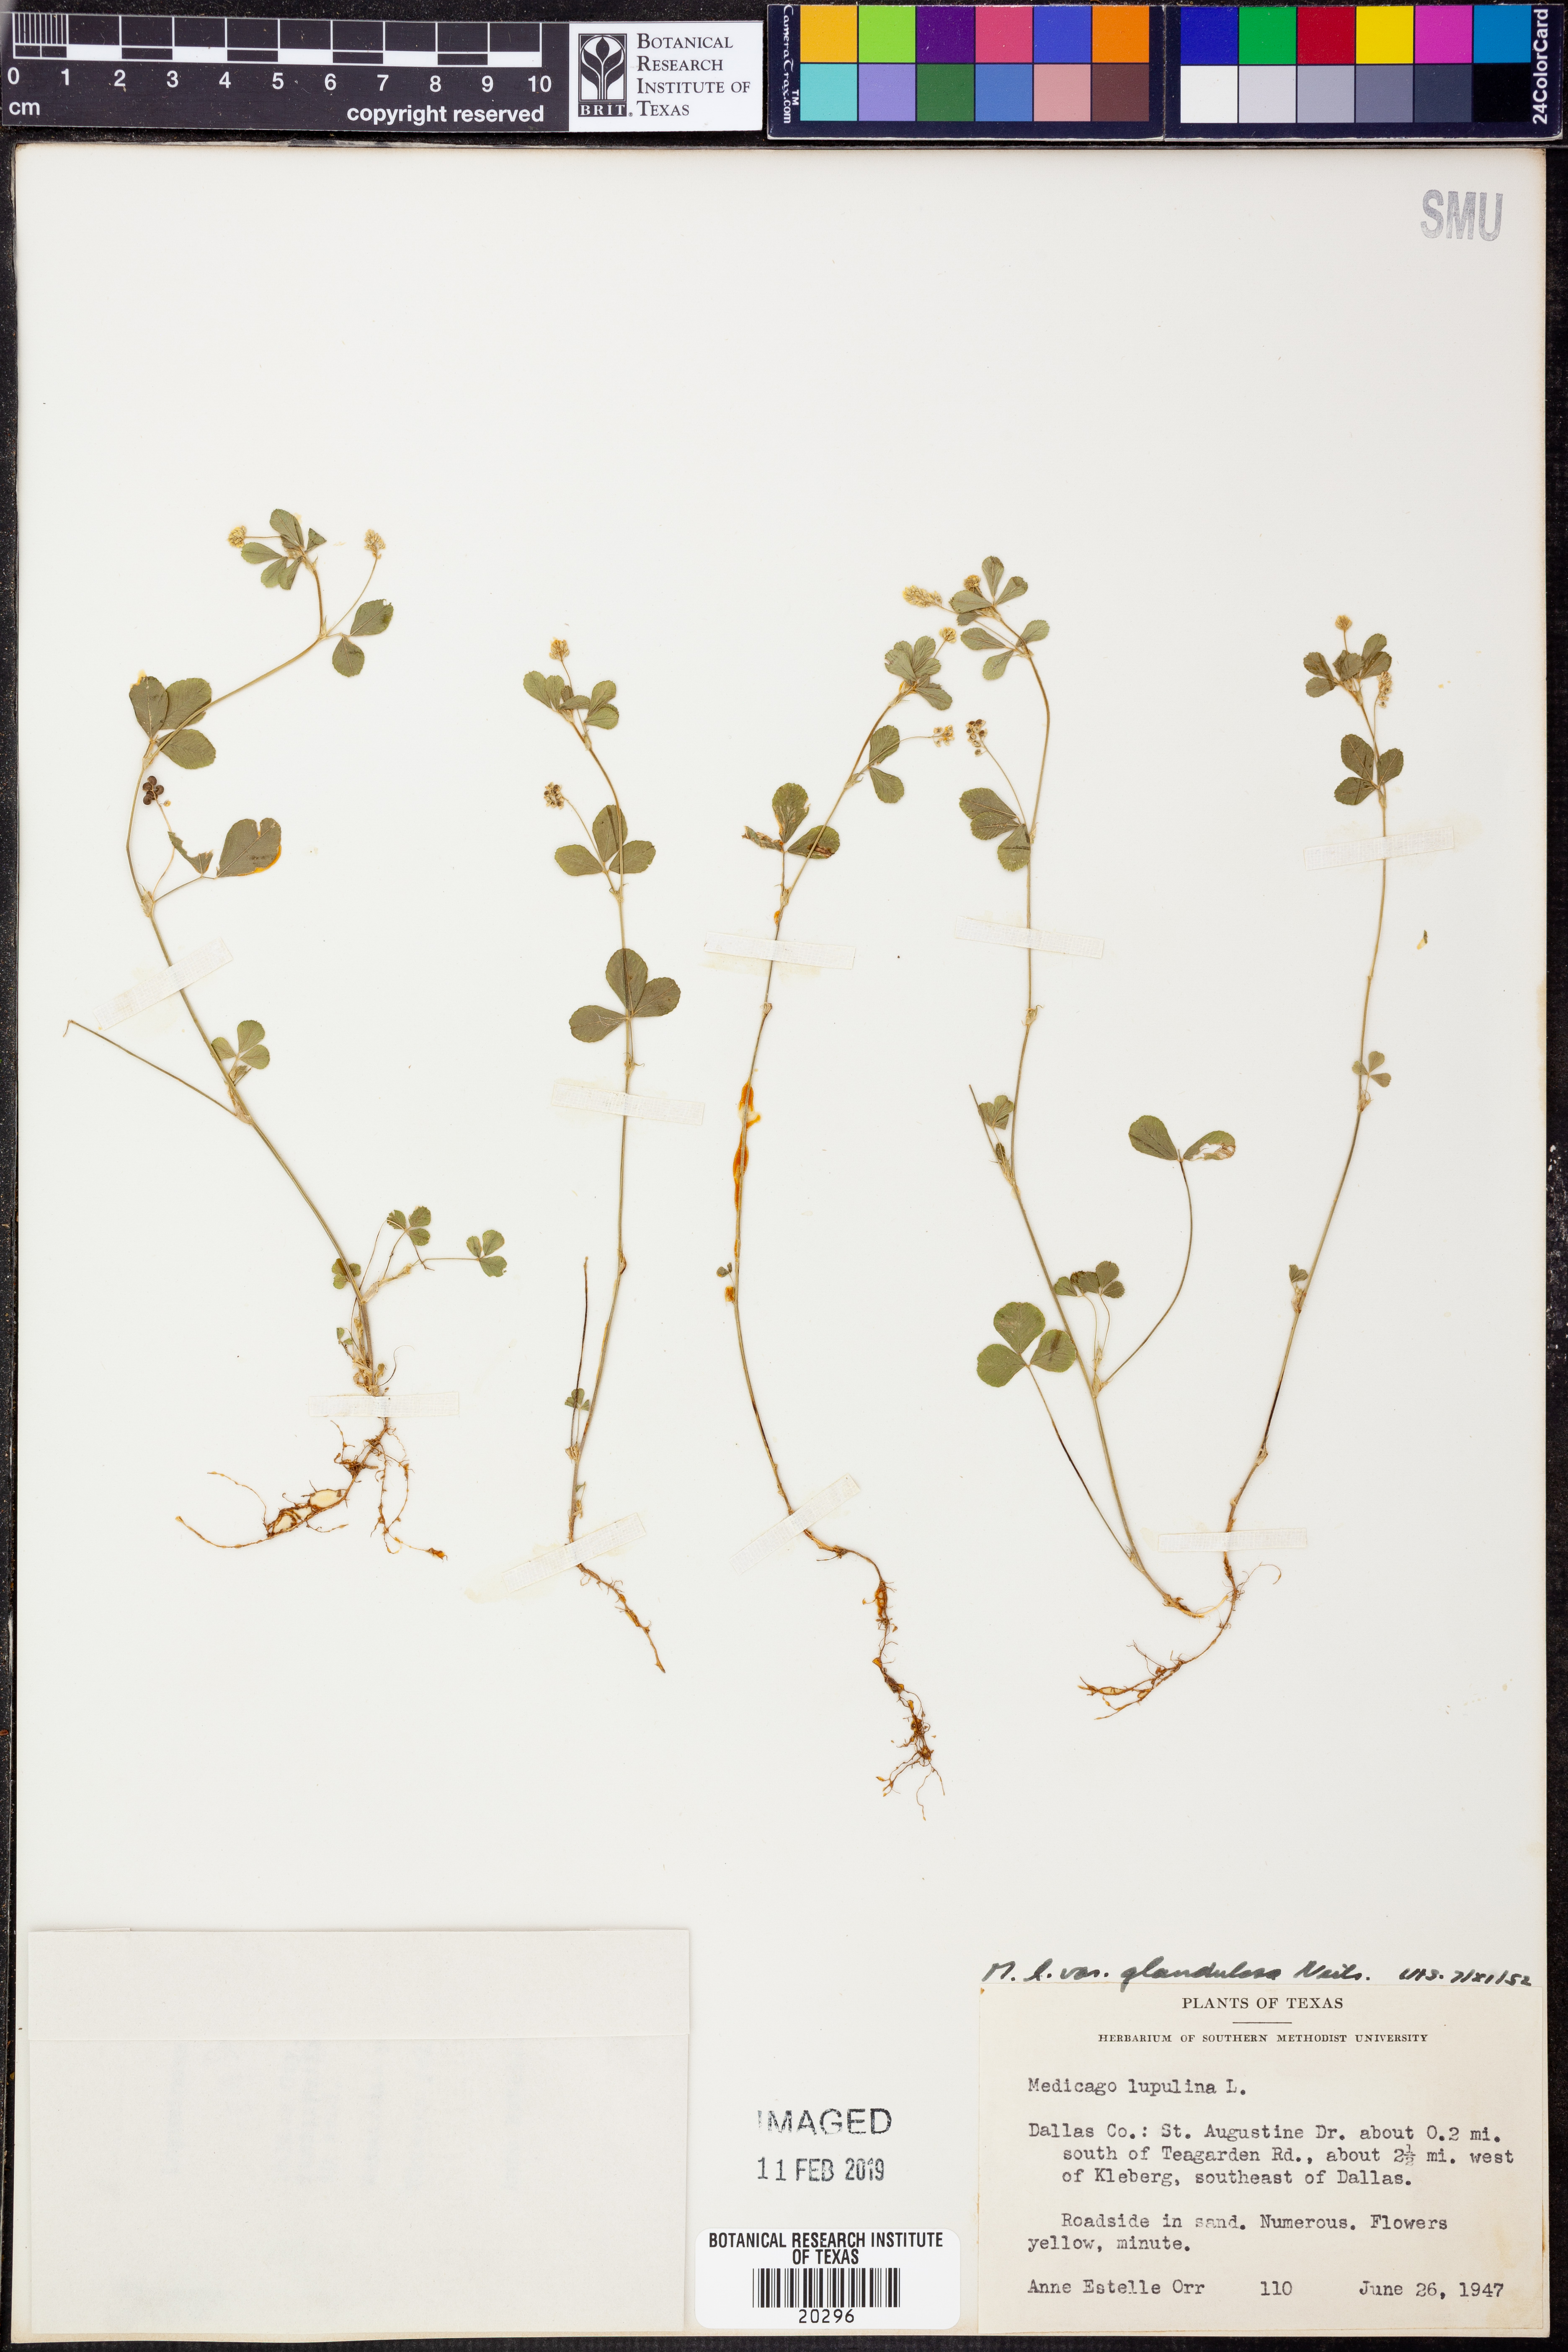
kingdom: Plantae
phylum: Tracheophyta
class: Magnoliopsida
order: Fabales
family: Fabaceae
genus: Medicago
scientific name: Medicago lupulina
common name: Black medick
